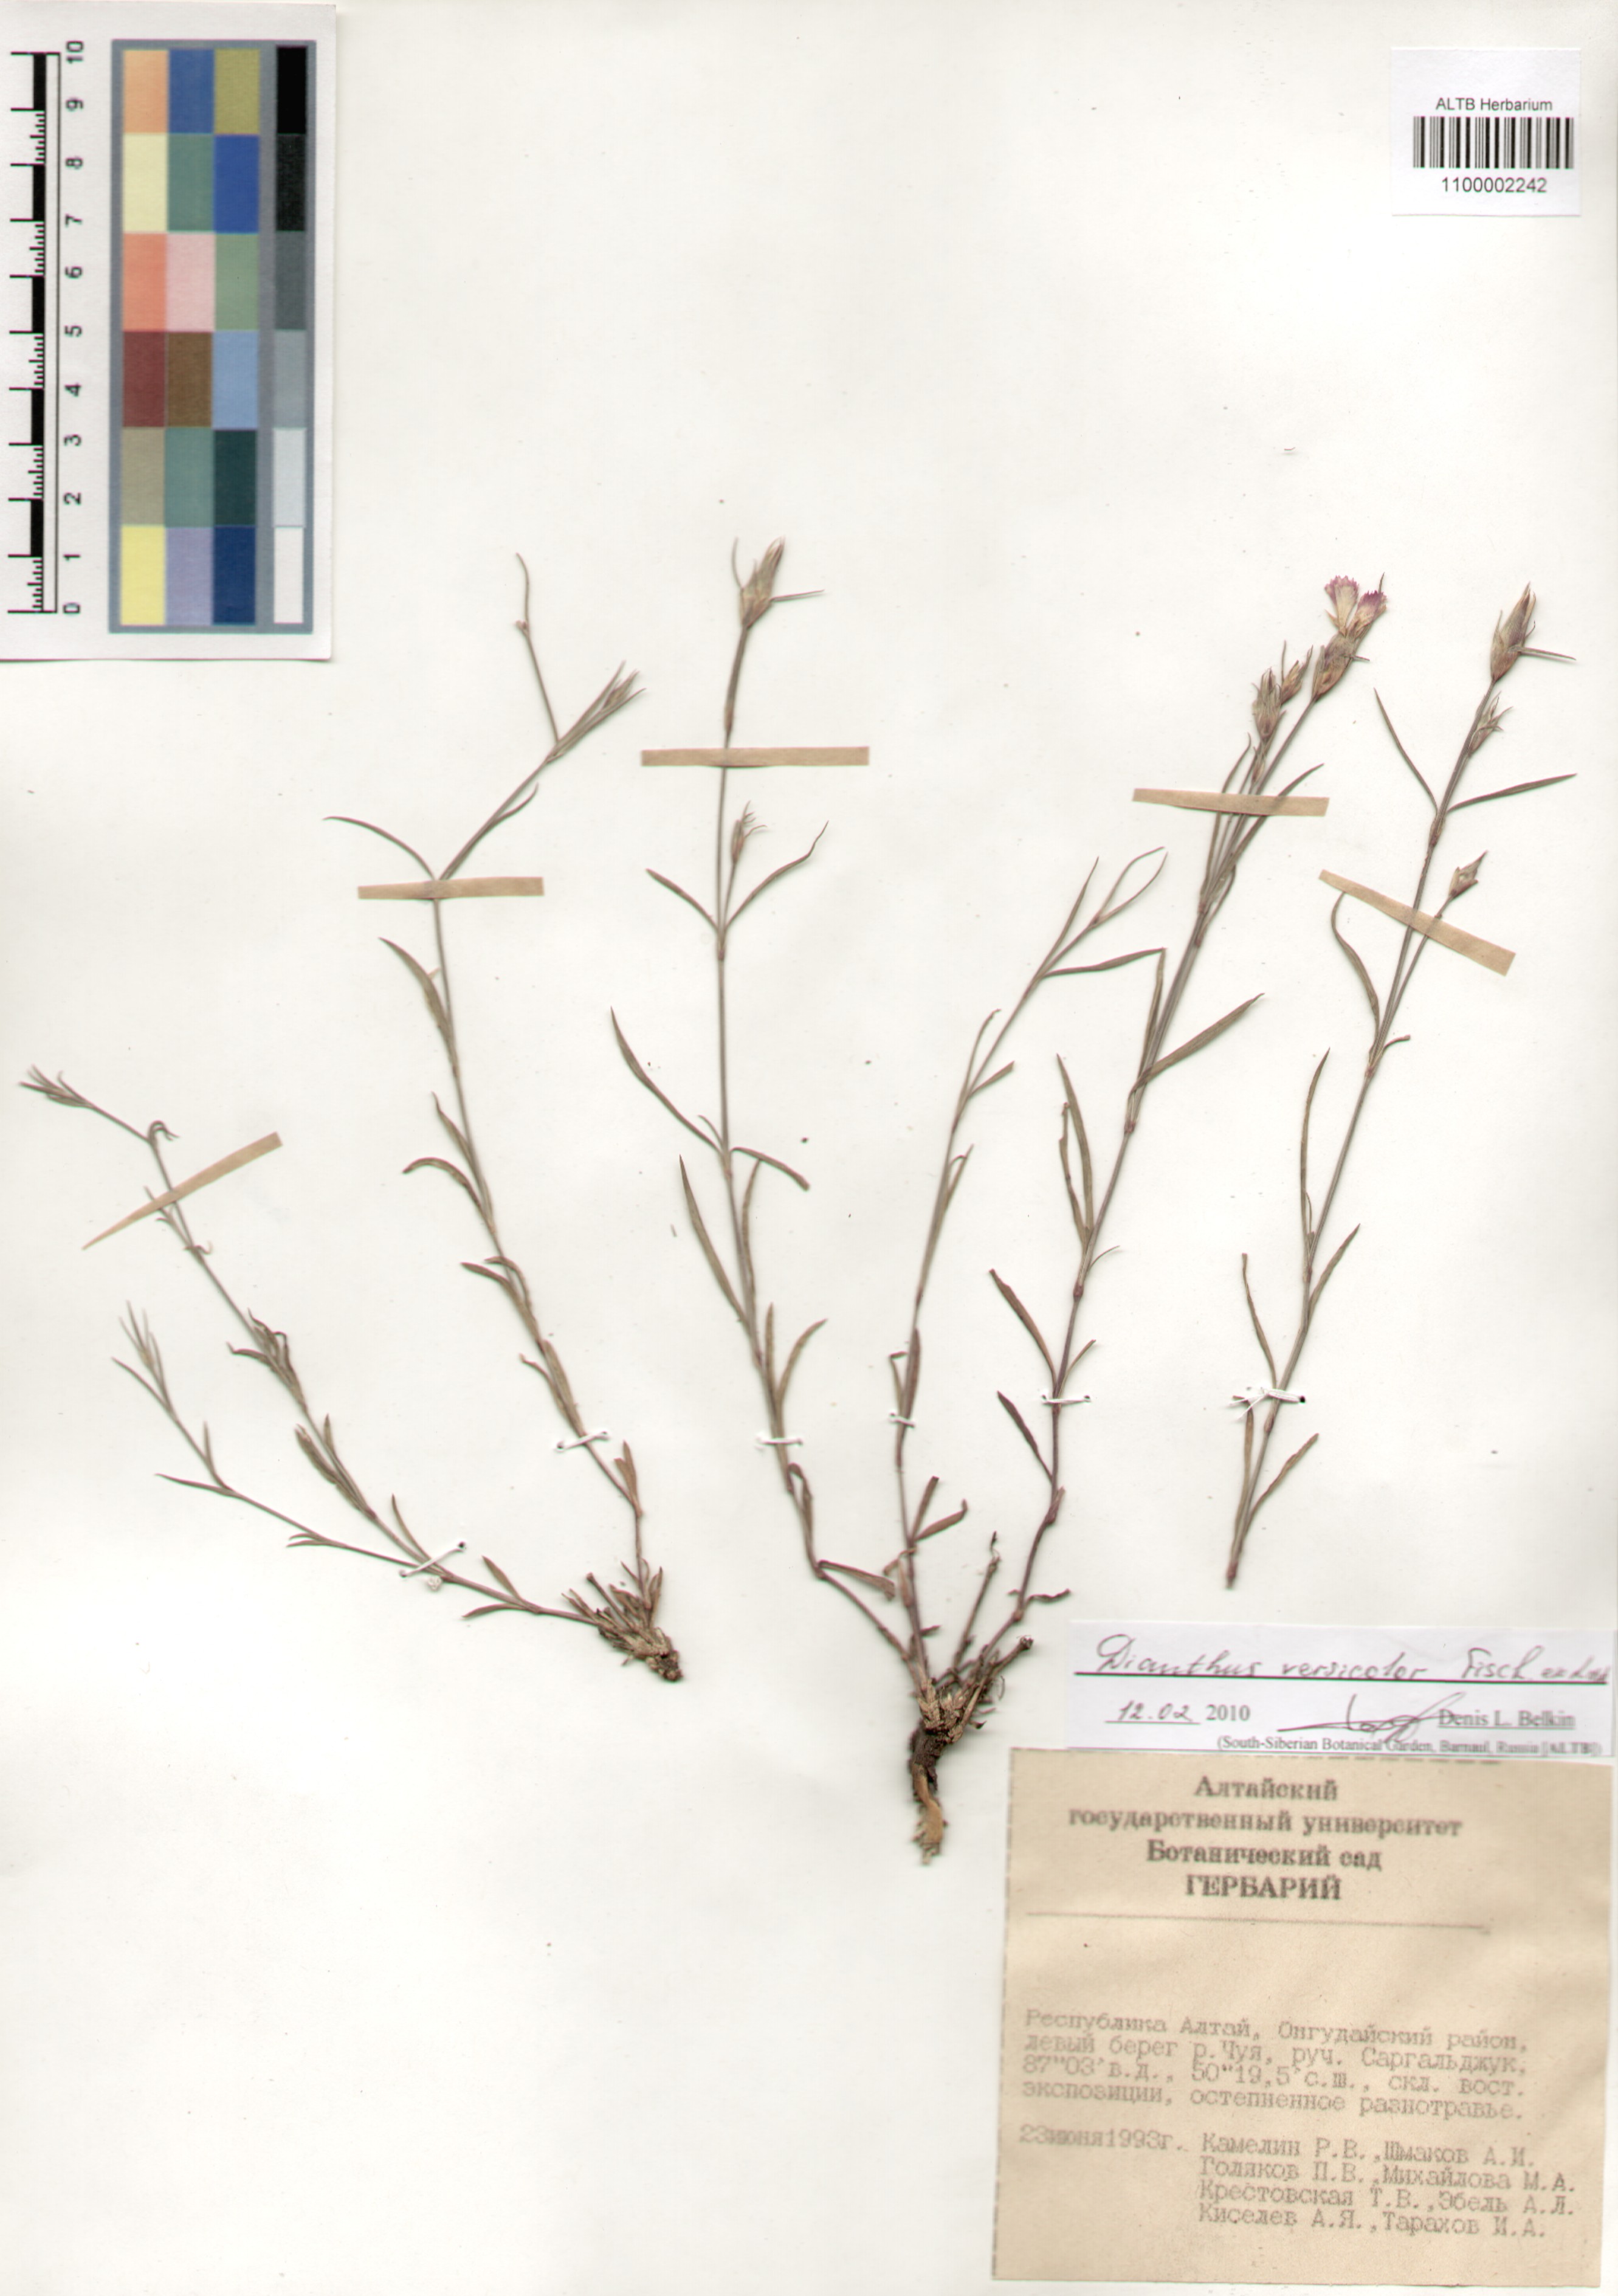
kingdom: Plantae
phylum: Tracheophyta
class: Magnoliopsida
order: Caryophyllales
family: Caryophyllaceae
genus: Dianthus
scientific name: Dianthus chinensis
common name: Rainbow pink
